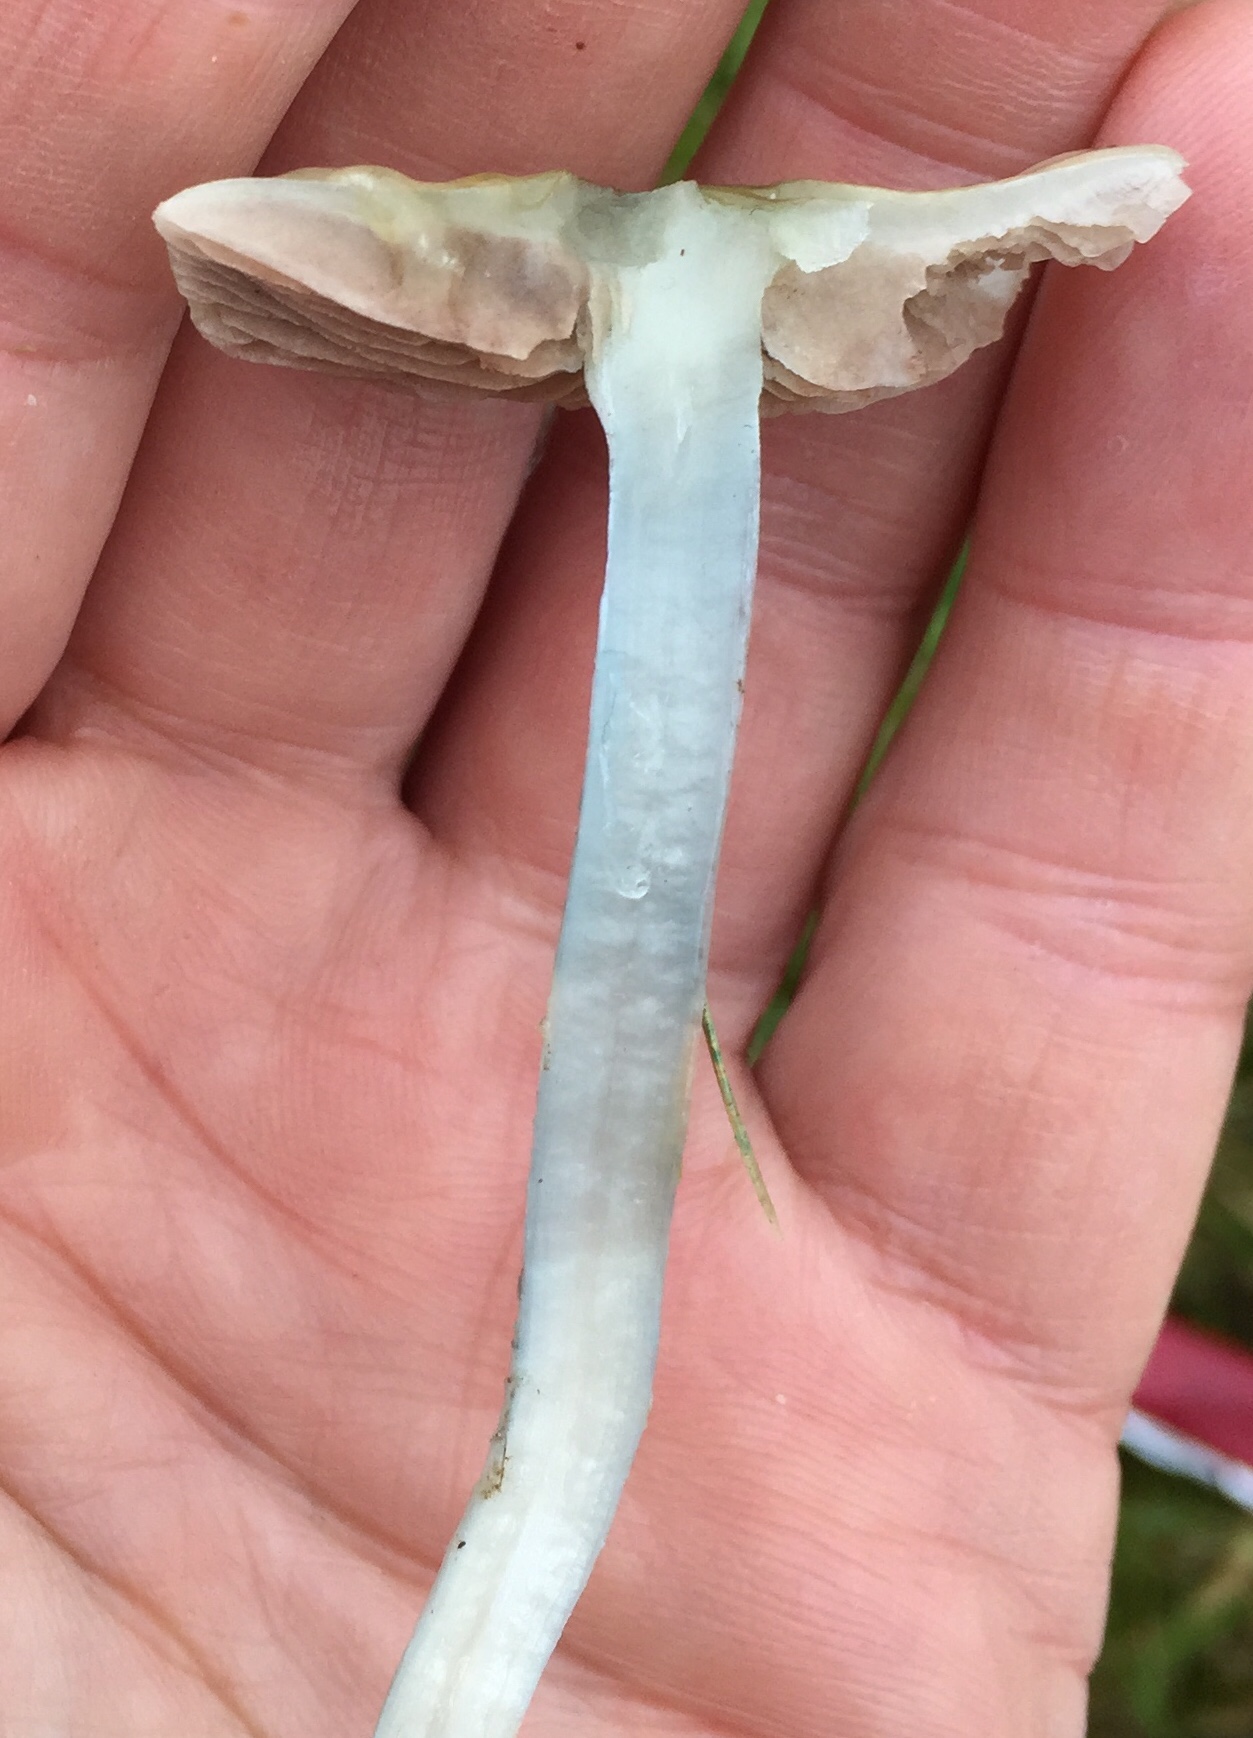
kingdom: Fungi
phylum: Basidiomycota
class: Agaricomycetes
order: Agaricales
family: Strophariaceae
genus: Stropharia
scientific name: Stropharia cyanea
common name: blågrøn bredblad
